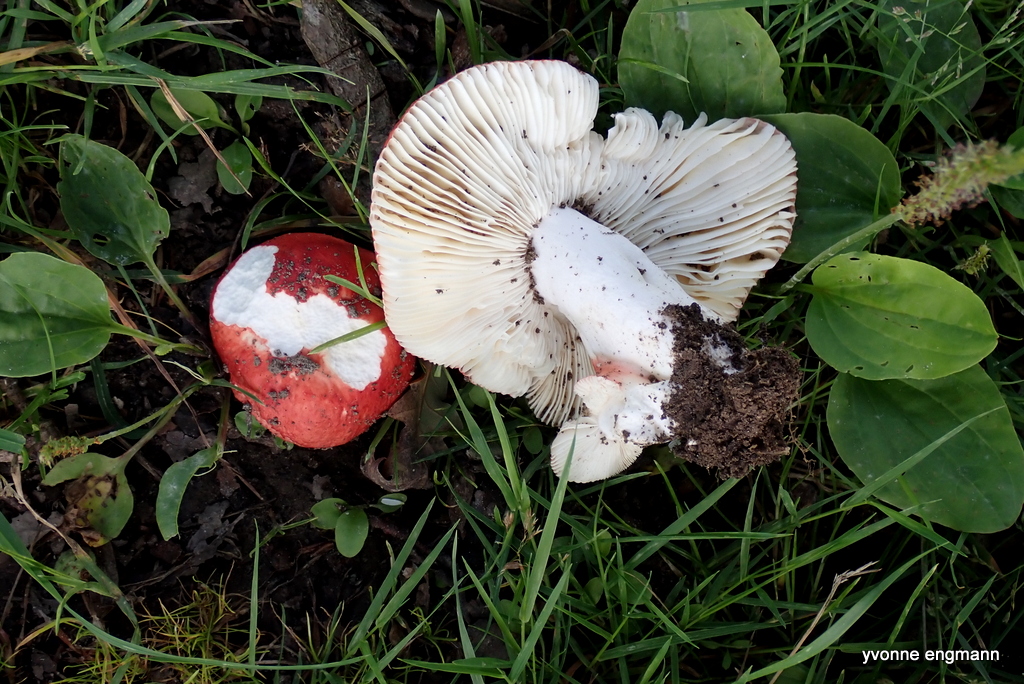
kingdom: Fungi
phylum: Basidiomycota
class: Agaricomycetes
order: Russulales
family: Russulaceae
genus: Russula
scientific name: Russula
